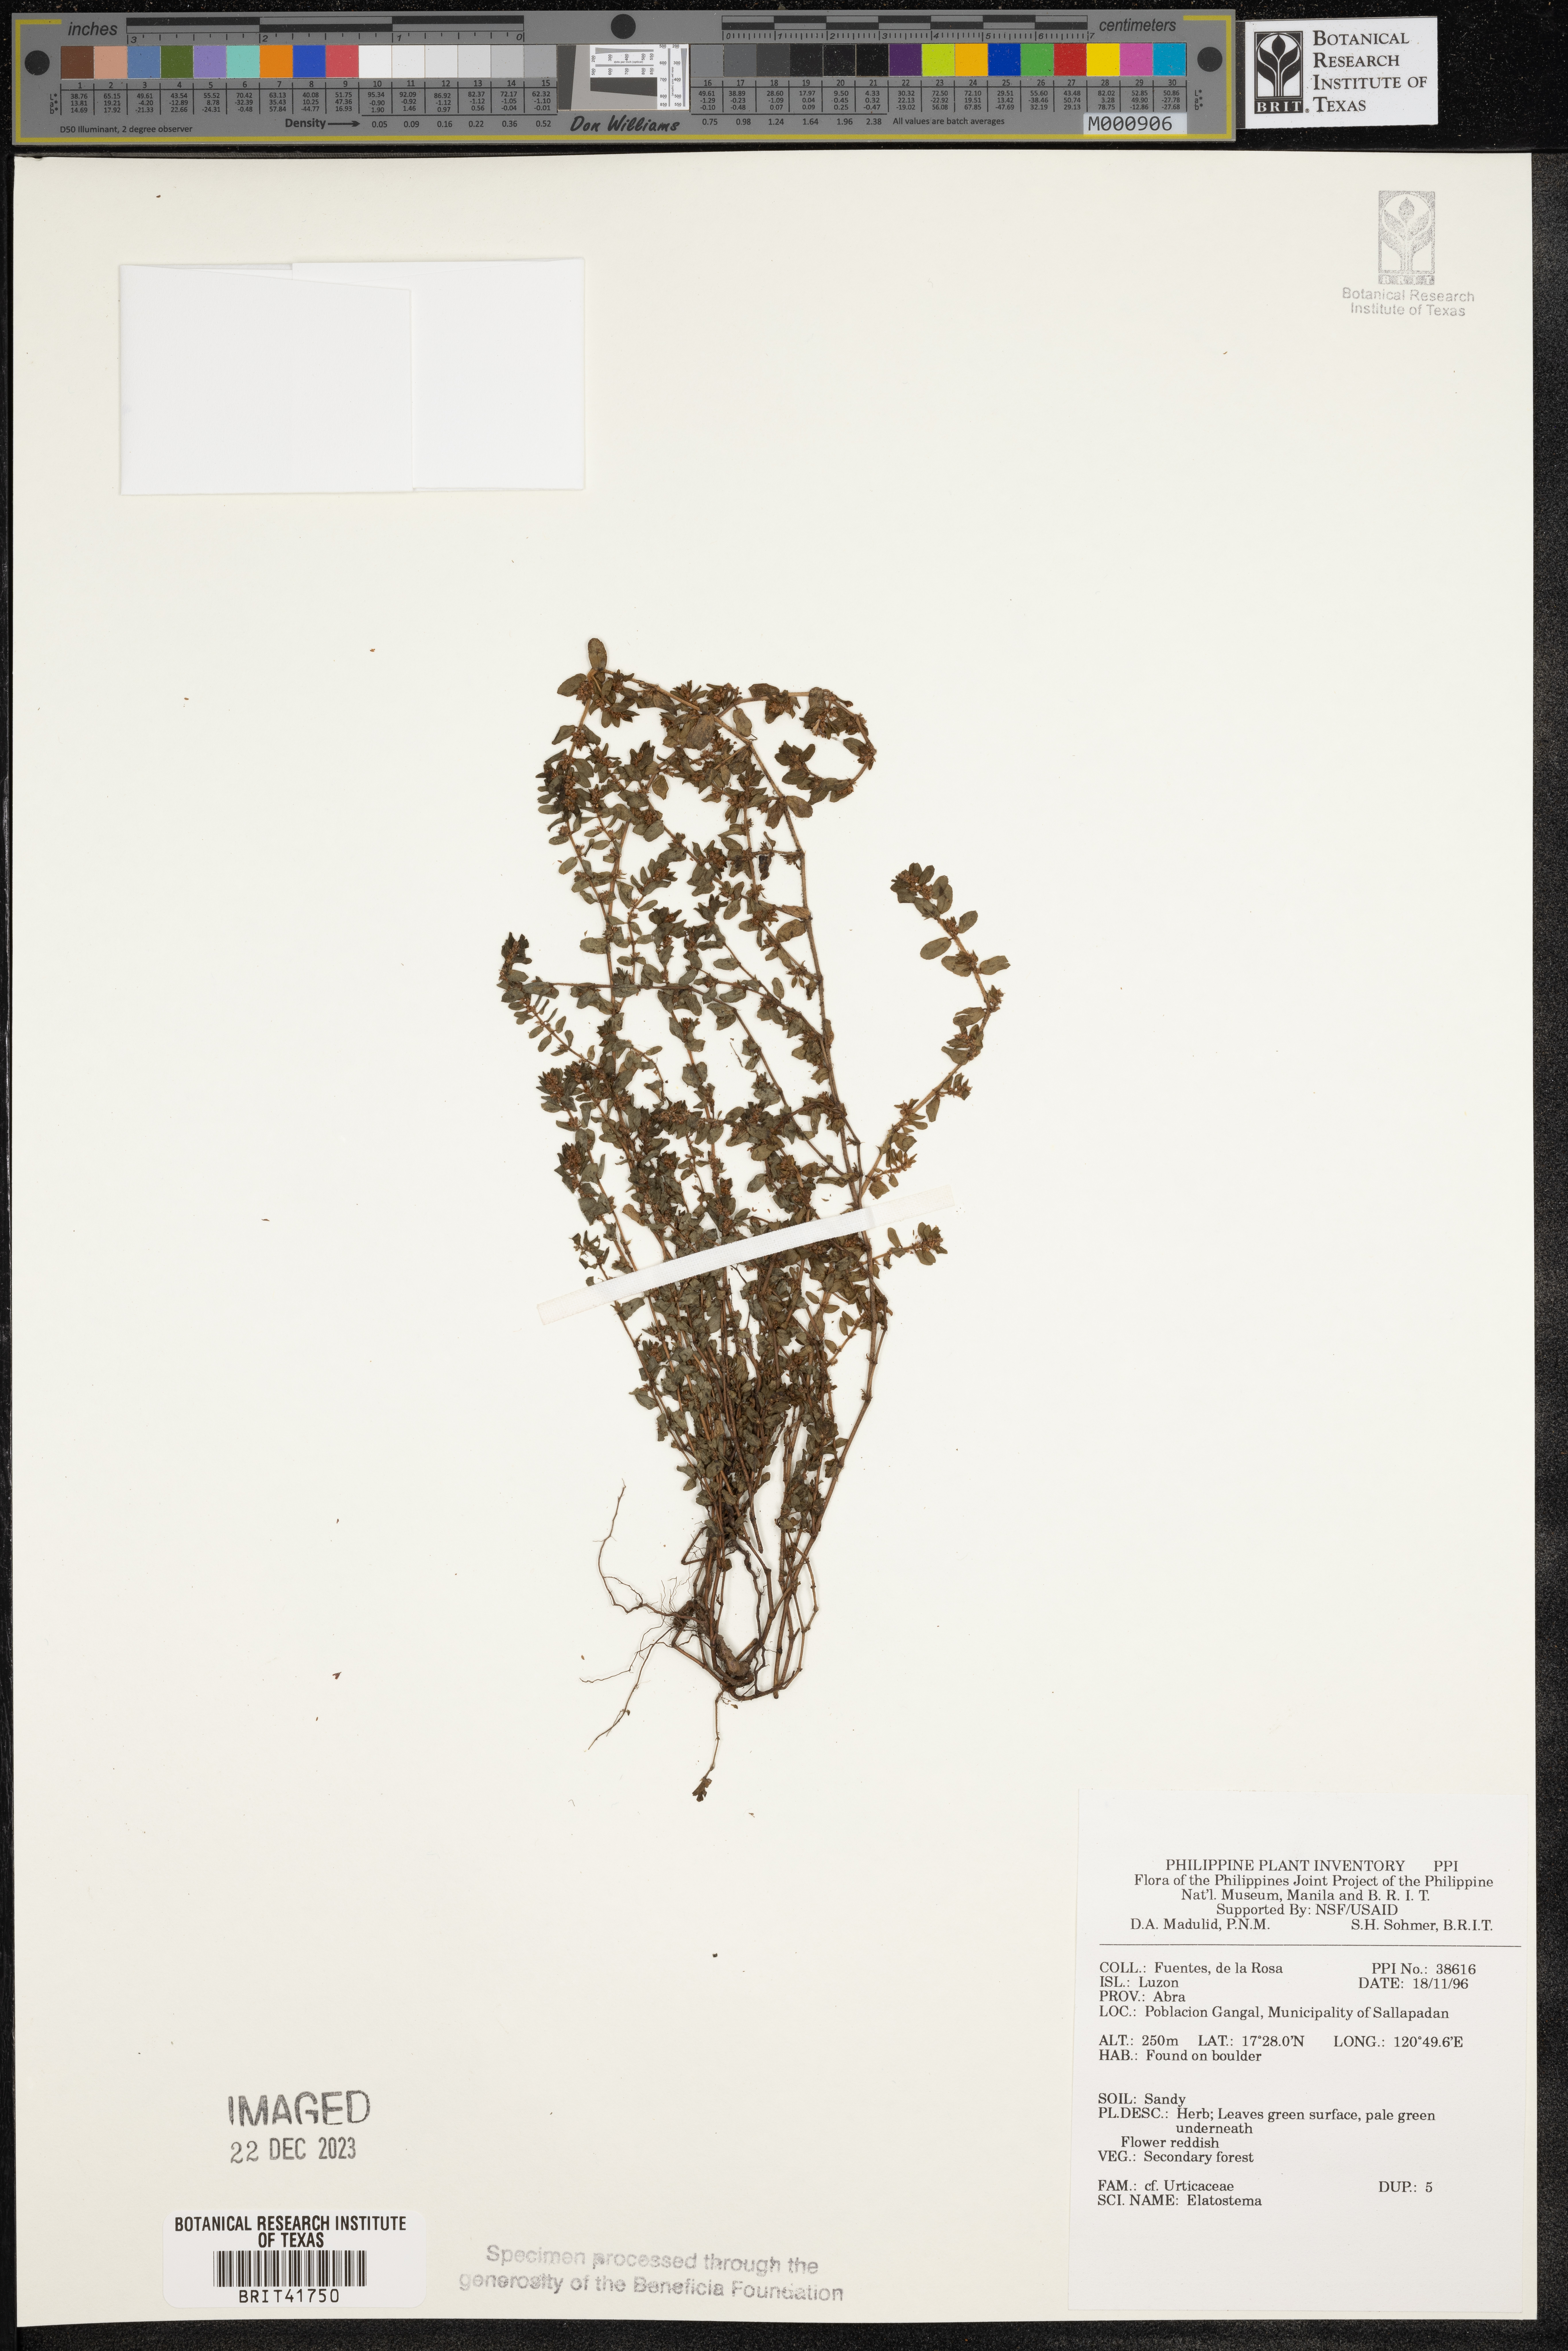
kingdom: Plantae
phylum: Tracheophyta
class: Magnoliopsida
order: Rosales
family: Urticaceae
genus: Elatostema
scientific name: Elatostema
